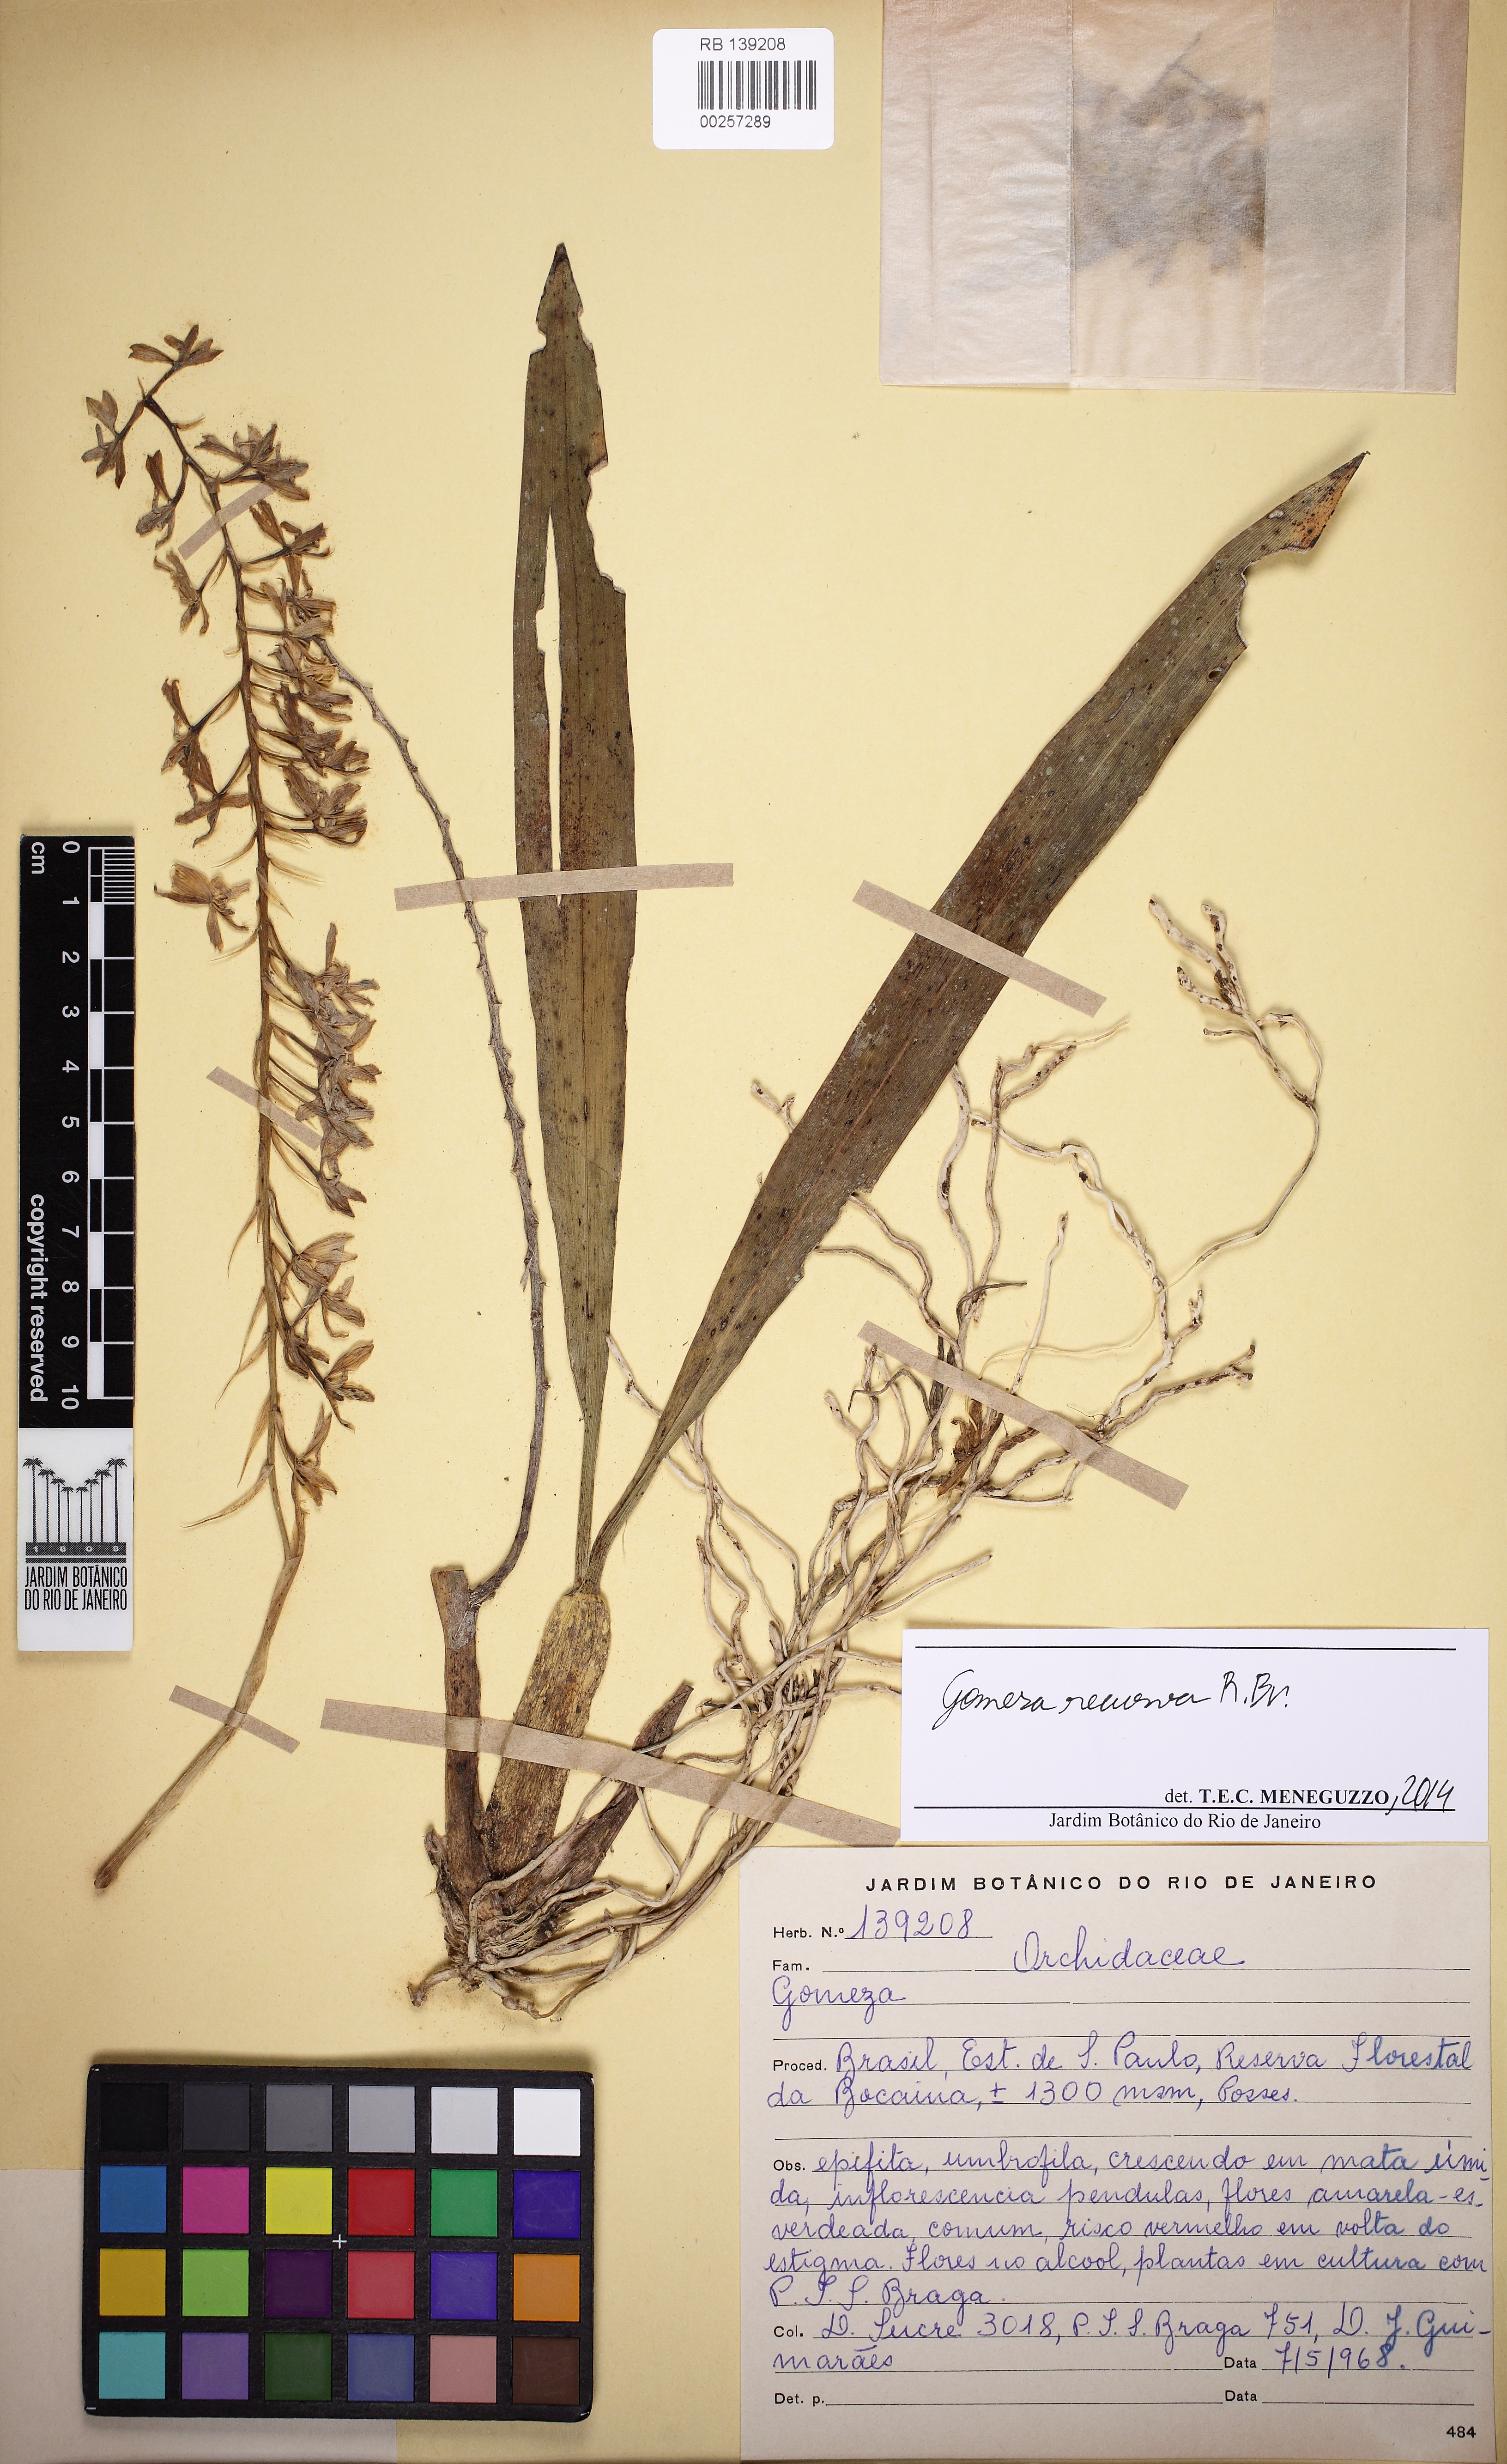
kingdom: Plantae
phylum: Tracheophyta
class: Liliopsida
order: Asparagales
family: Orchidaceae
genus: Gomesa
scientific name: Gomesa recurva
